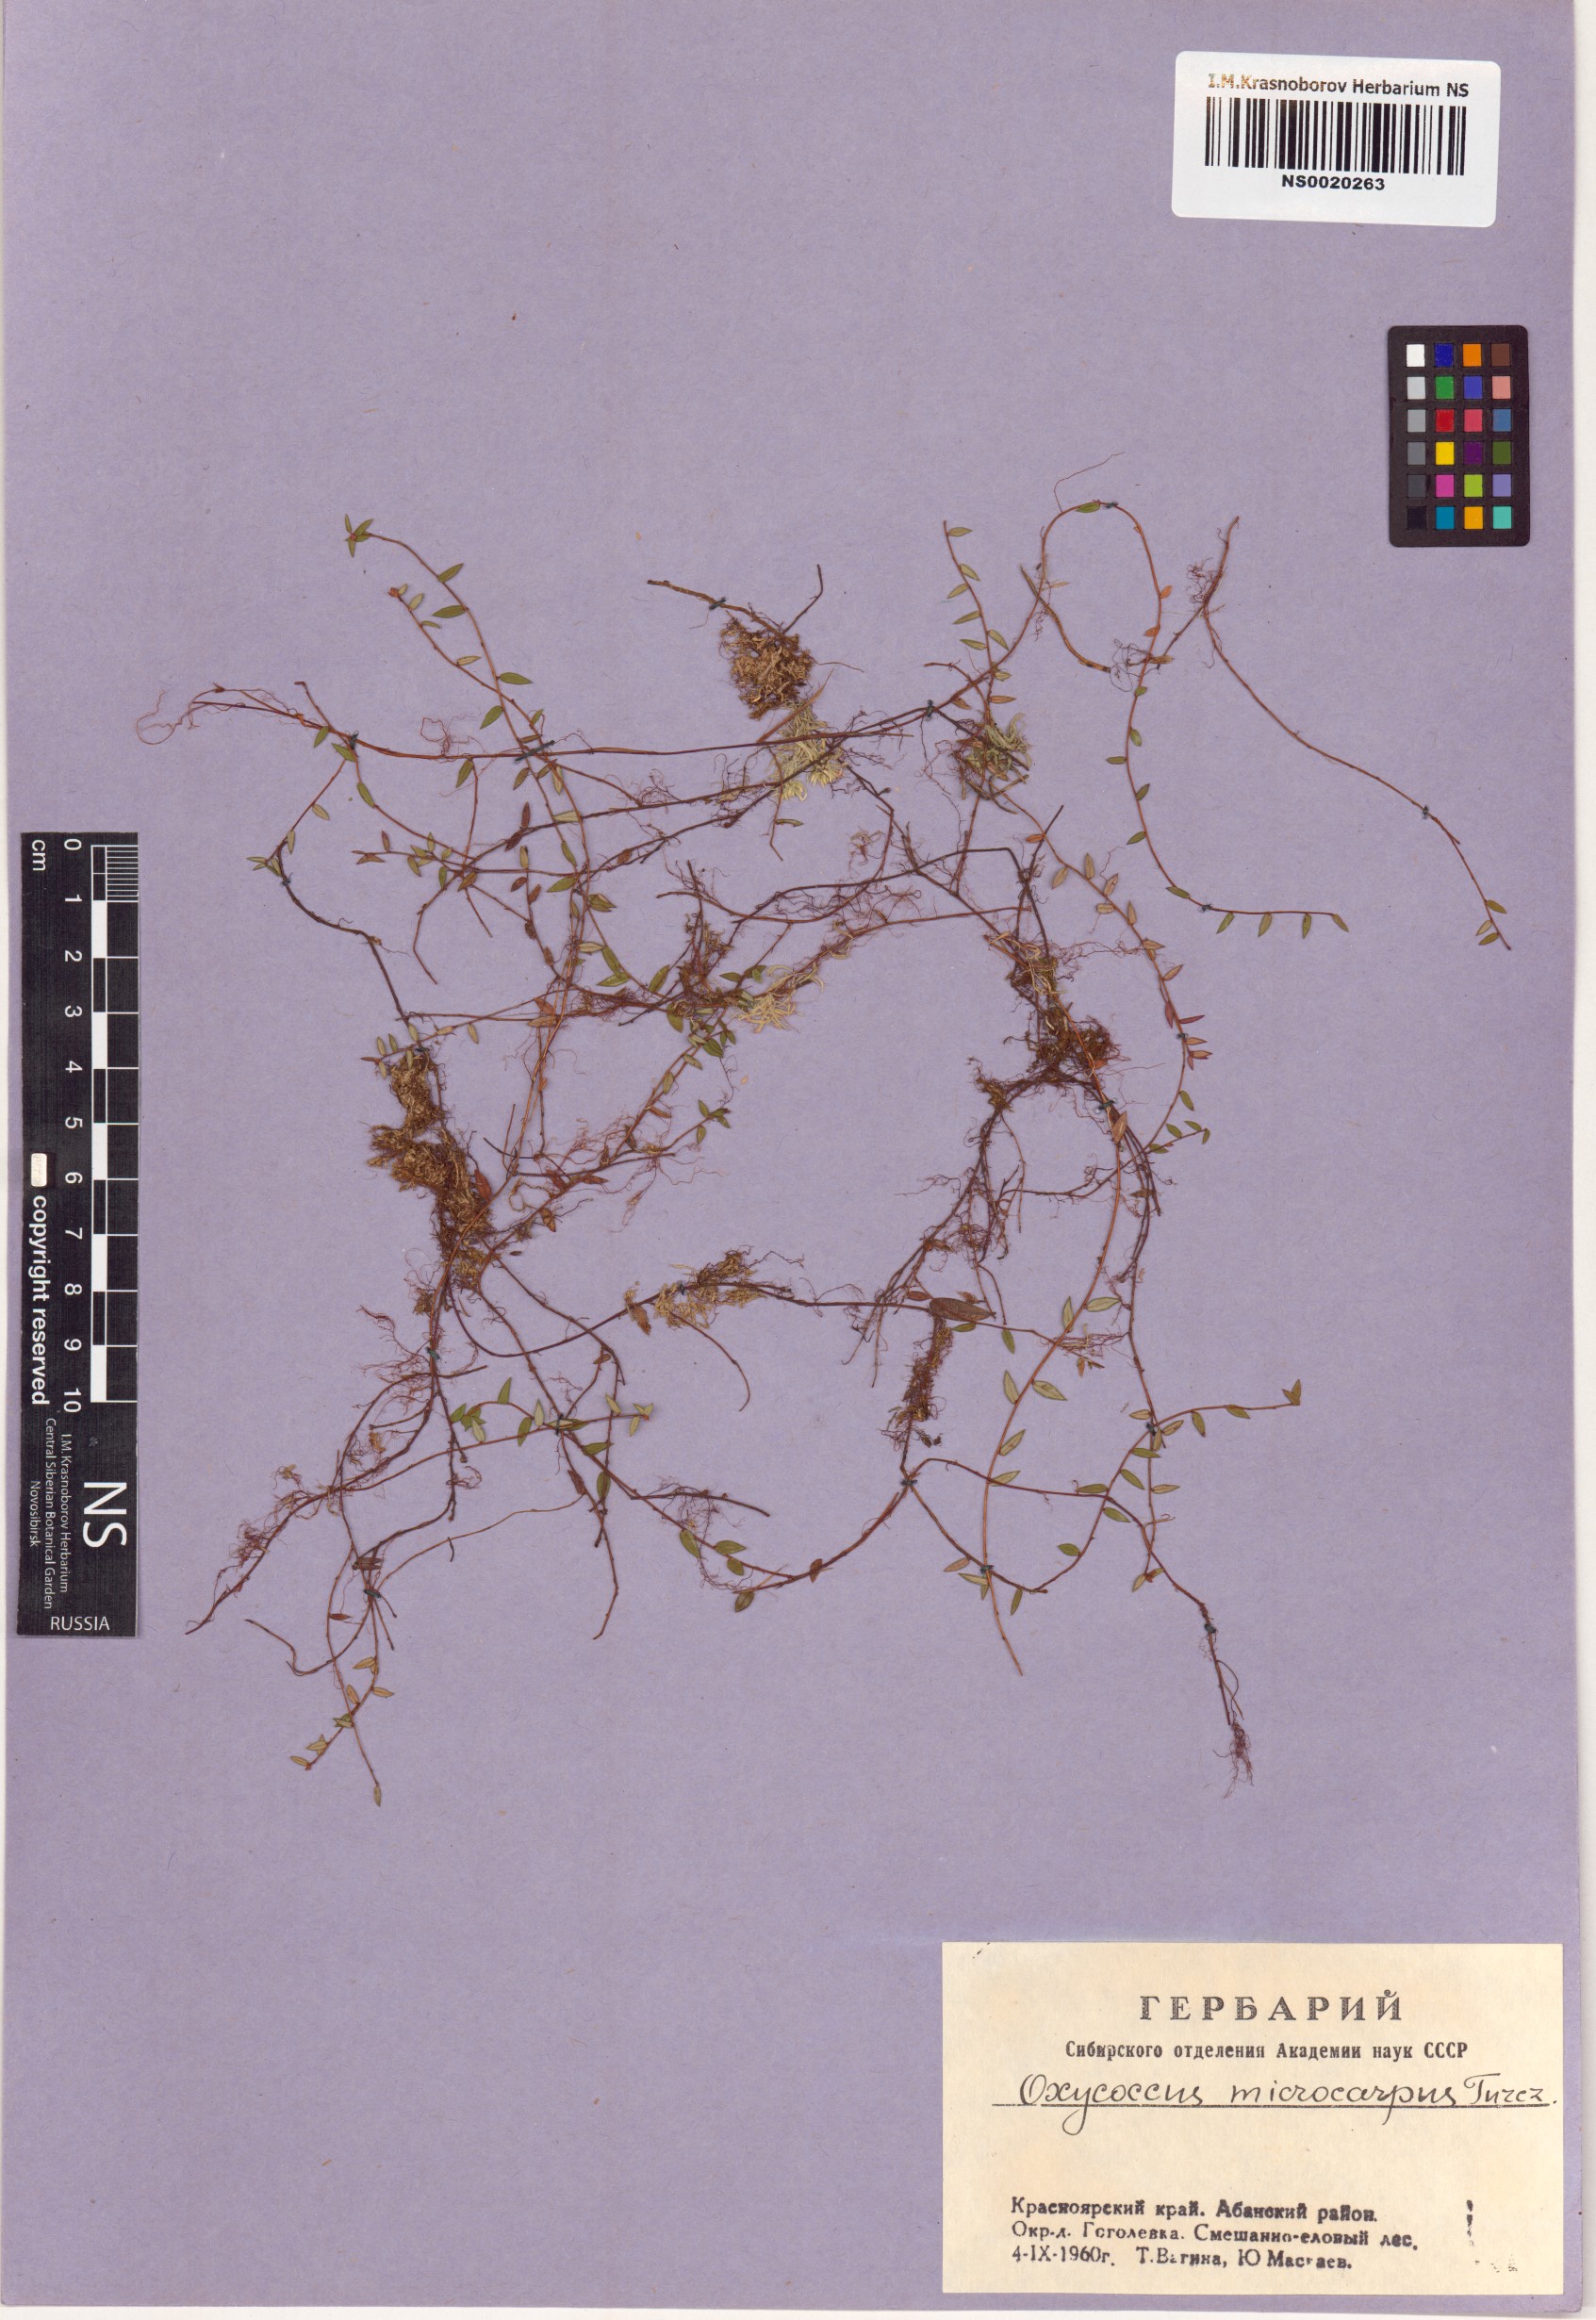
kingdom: Plantae
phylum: Tracheophyta
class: Magnoliopsida
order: Ericales
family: Ericaceae
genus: Vaccinium
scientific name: Vaccinium microcarpum
